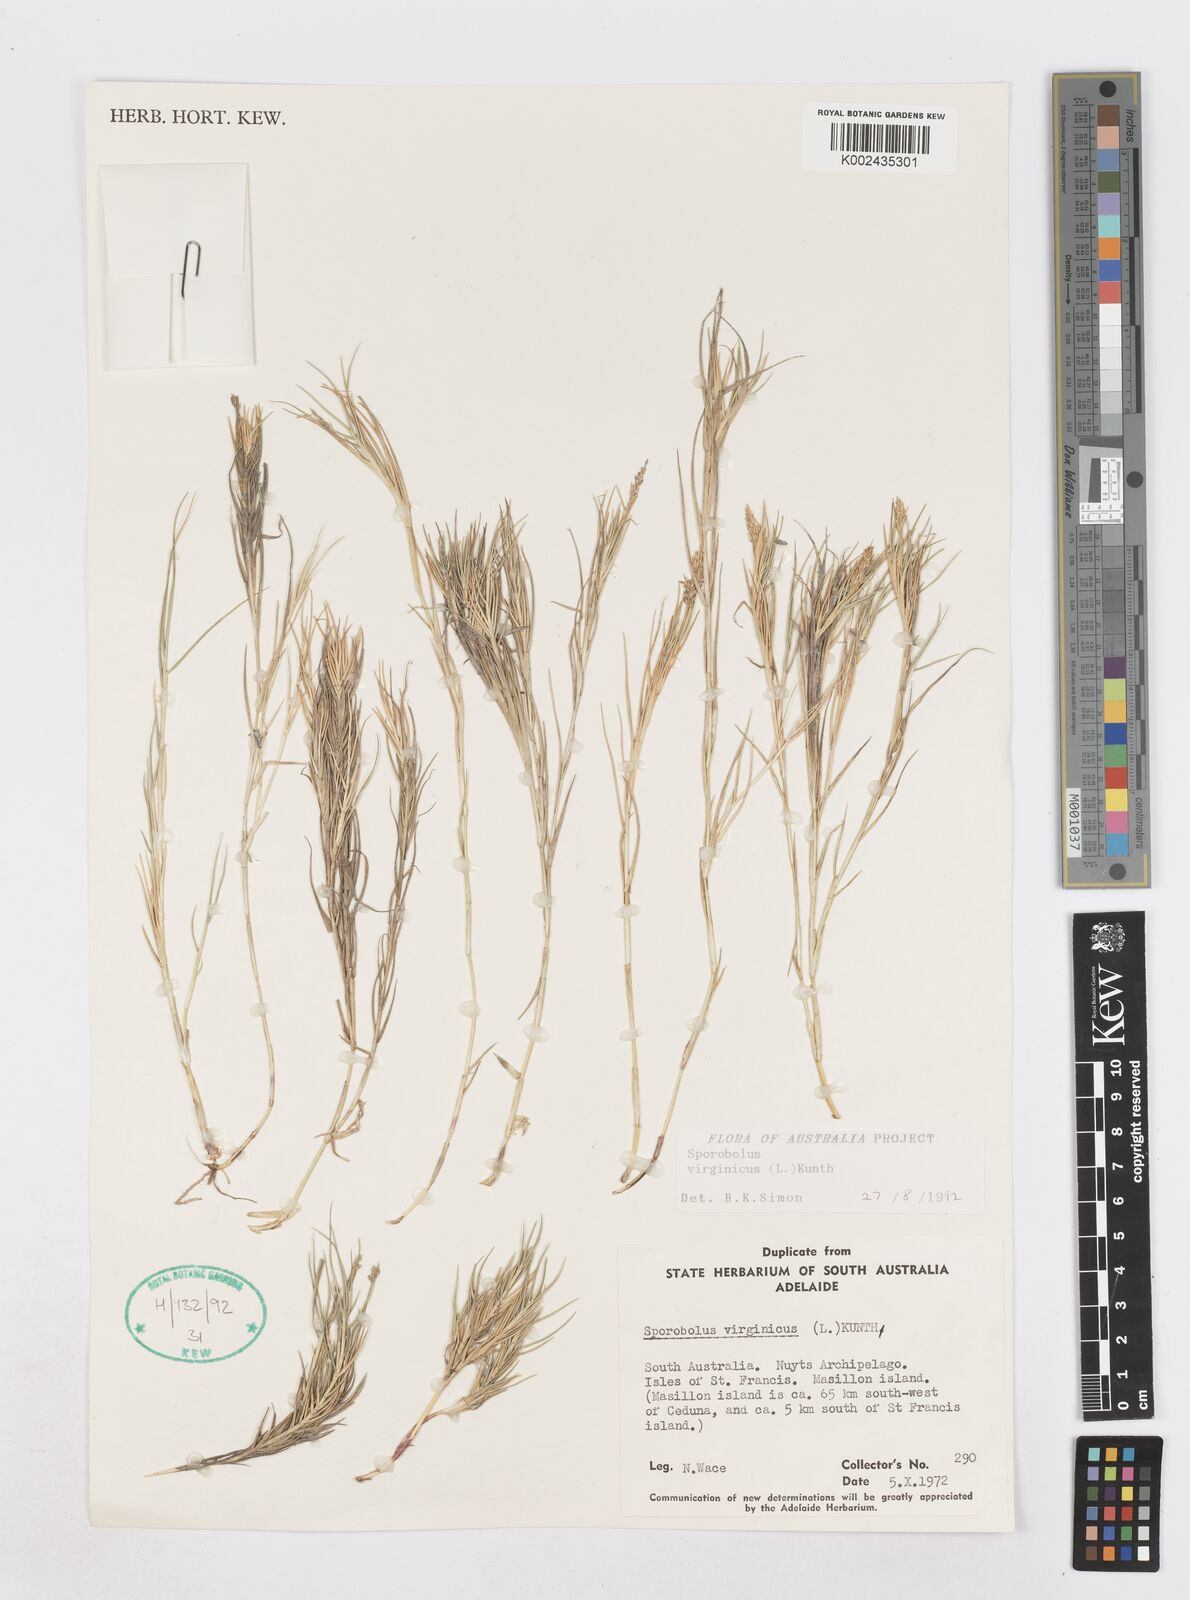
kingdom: Plantae
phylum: Tracheophyta
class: Liliopsida
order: Poales
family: Poaceae
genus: Sporobolus
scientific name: Sporobolus virginicus
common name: Beach dropseed
